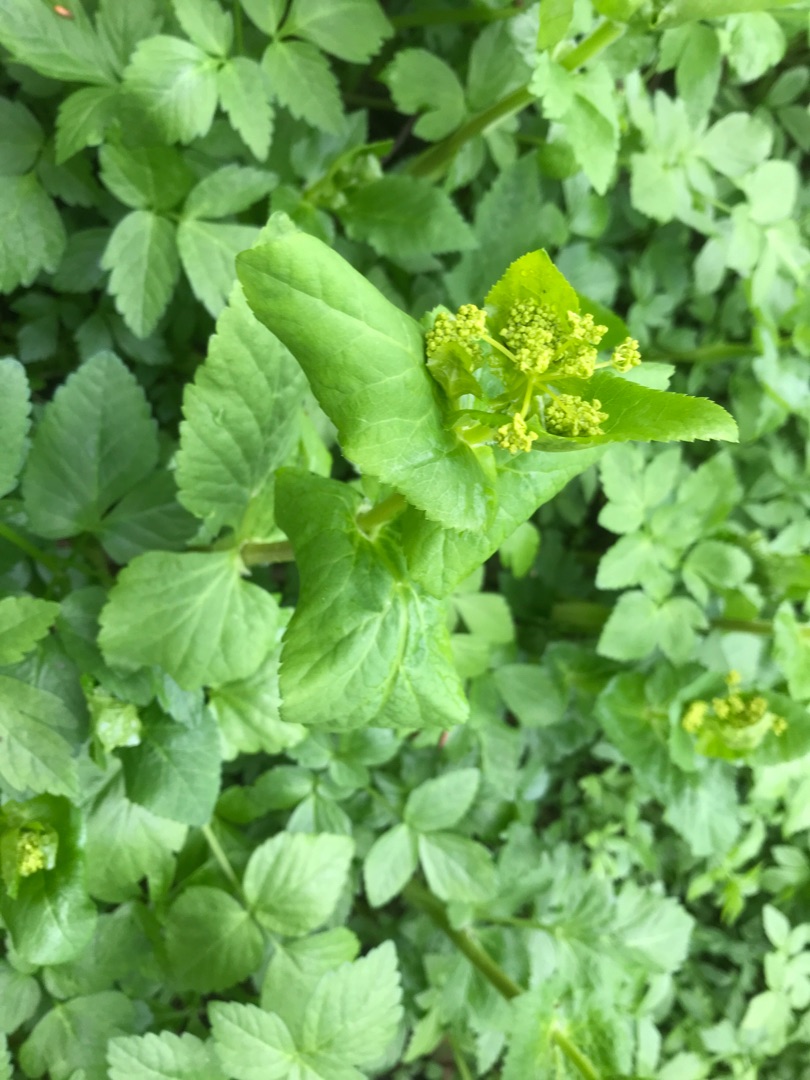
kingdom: Plantae
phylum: Tracheophyta
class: Magnoliopsida
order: Apiales
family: Apiaceae
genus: Smyrnium
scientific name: Smyrnium perfoliatum
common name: Lundgylden
